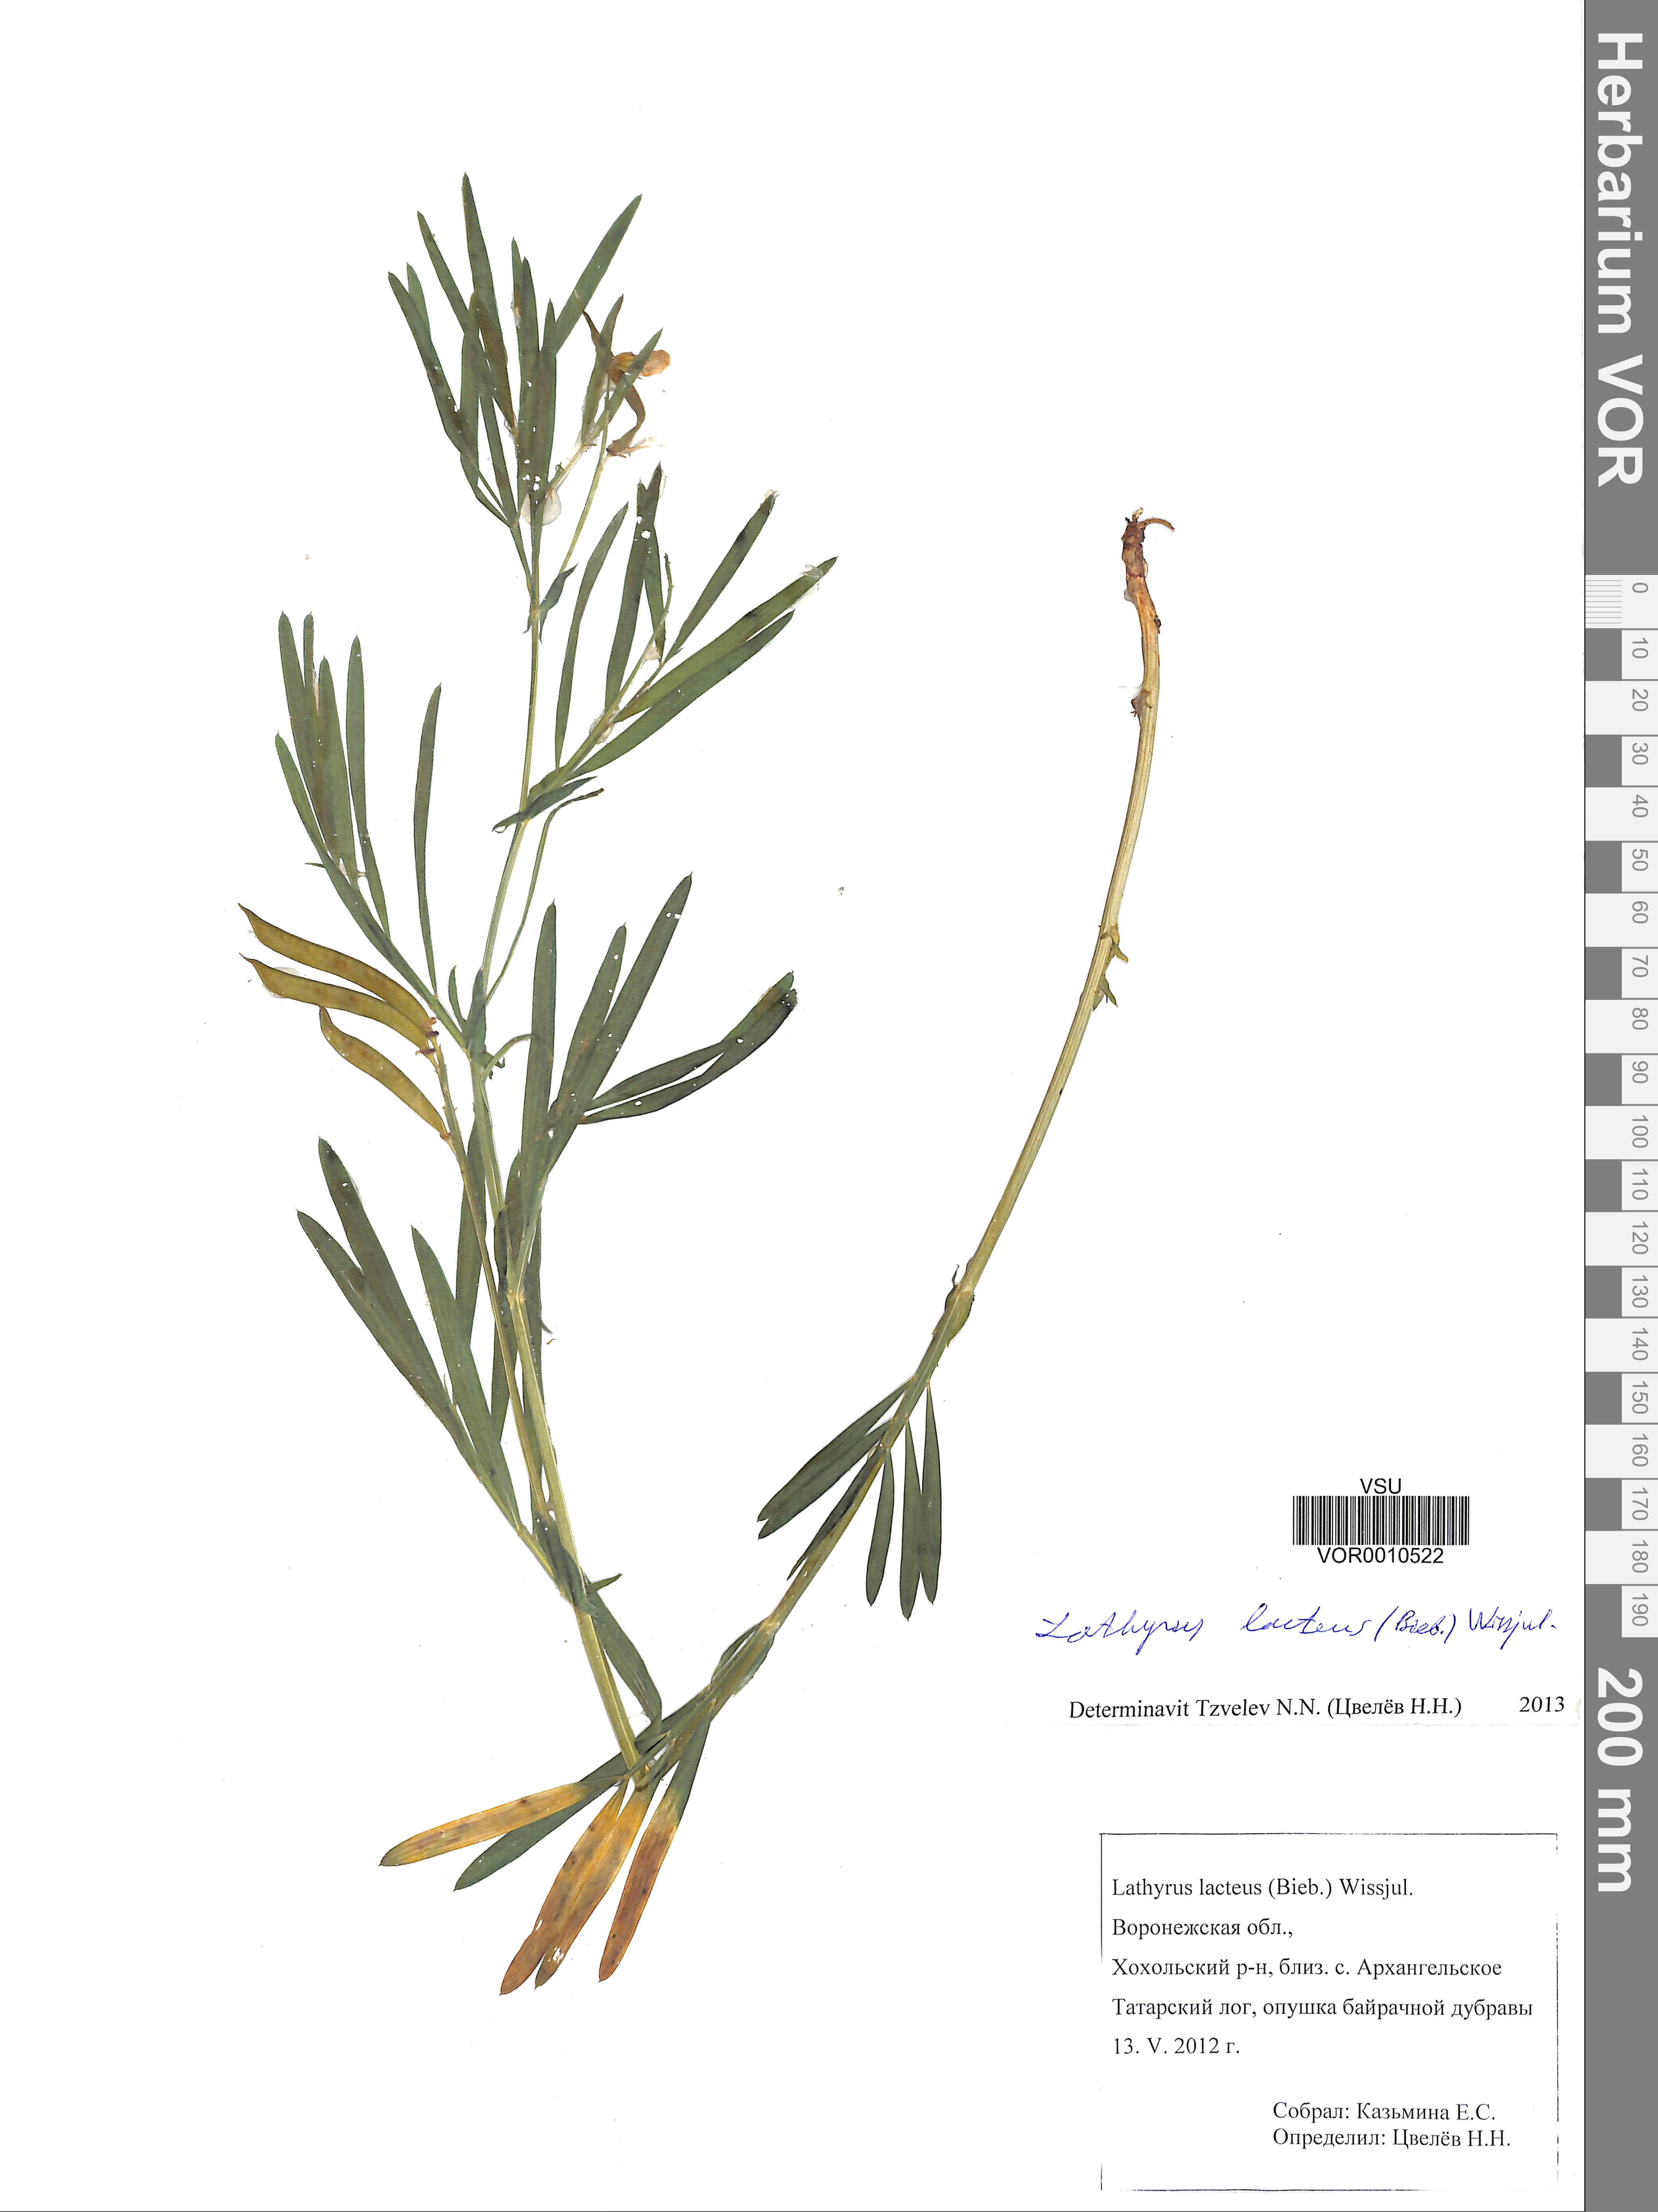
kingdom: Plantae
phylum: Tracheophyta
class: Magnoliopsida
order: Fabales
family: Fabaceae
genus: Lathyrus
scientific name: Lathyrus pannonicus
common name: Pea
